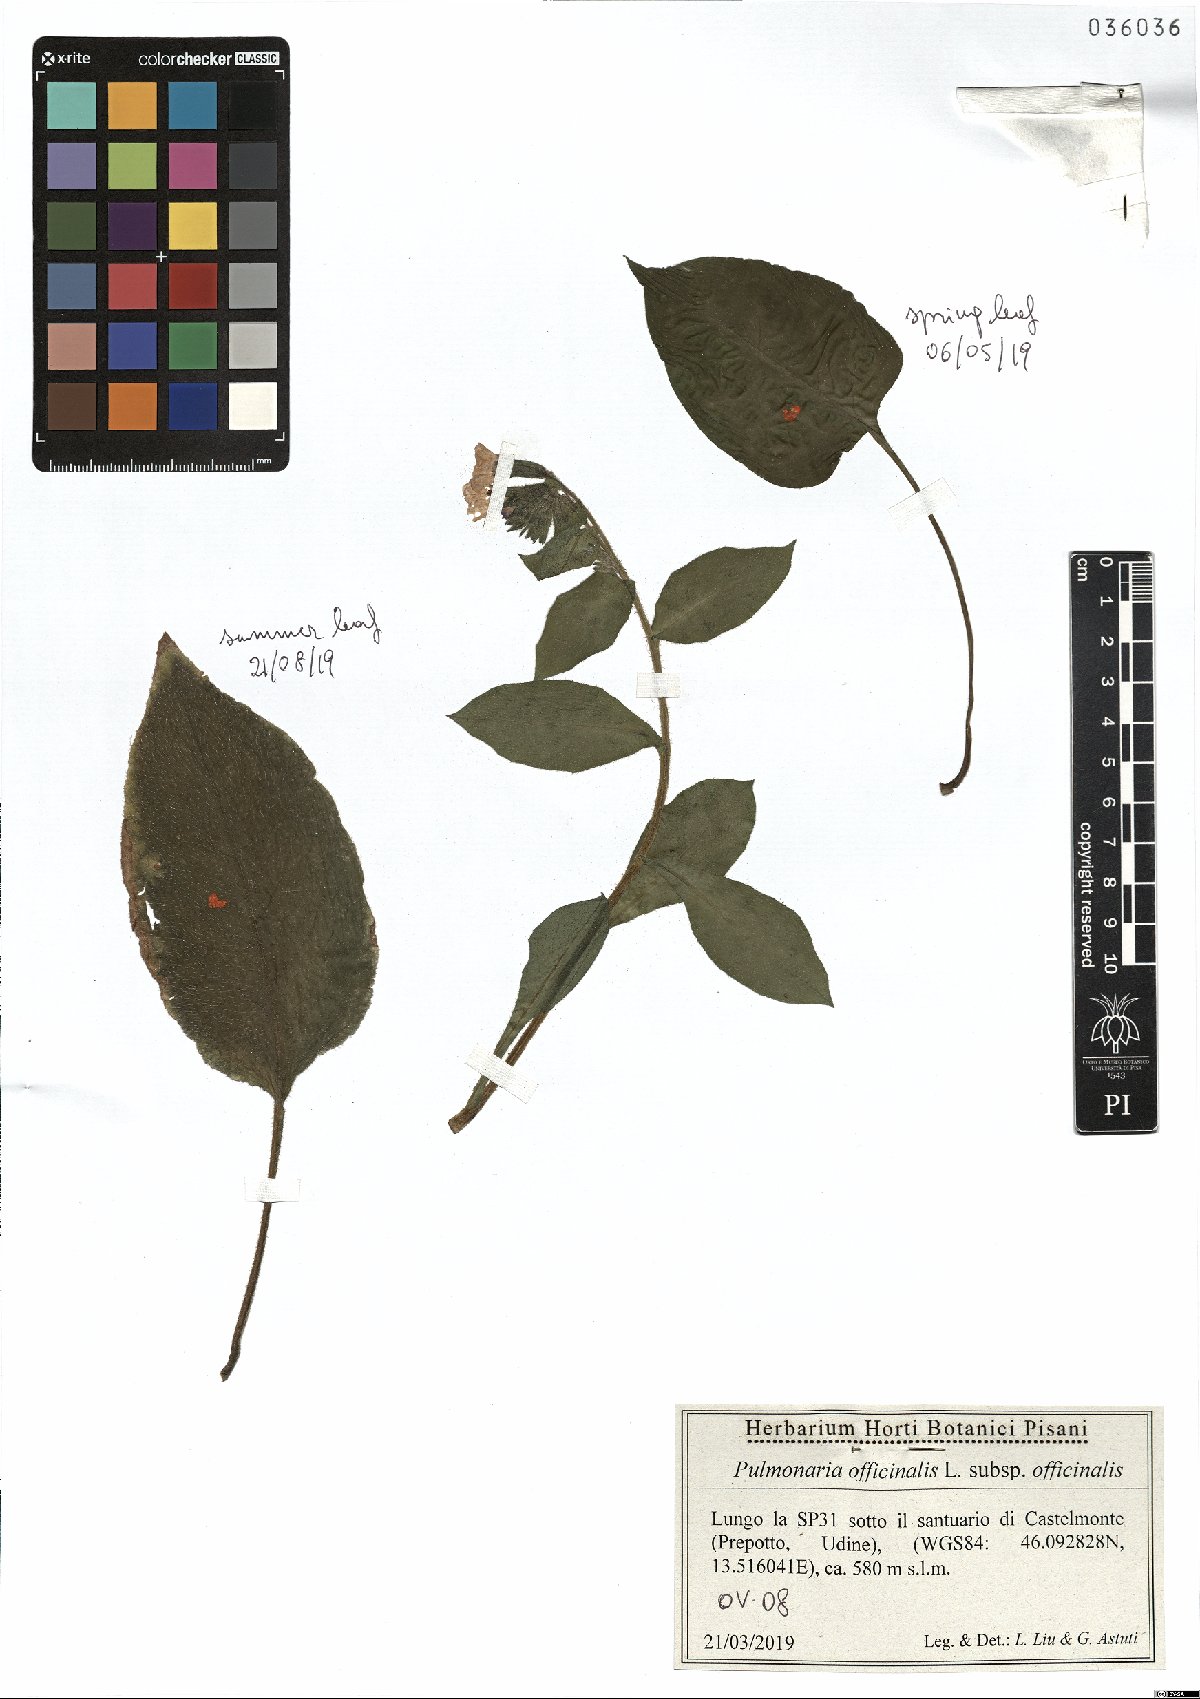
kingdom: Plantae
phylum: Tracheophyta
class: Magnoliopsida
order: Boraginales
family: Boraginaceae
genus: Pulmonaria
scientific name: Pulmonaria officinalis
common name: Lungwort
